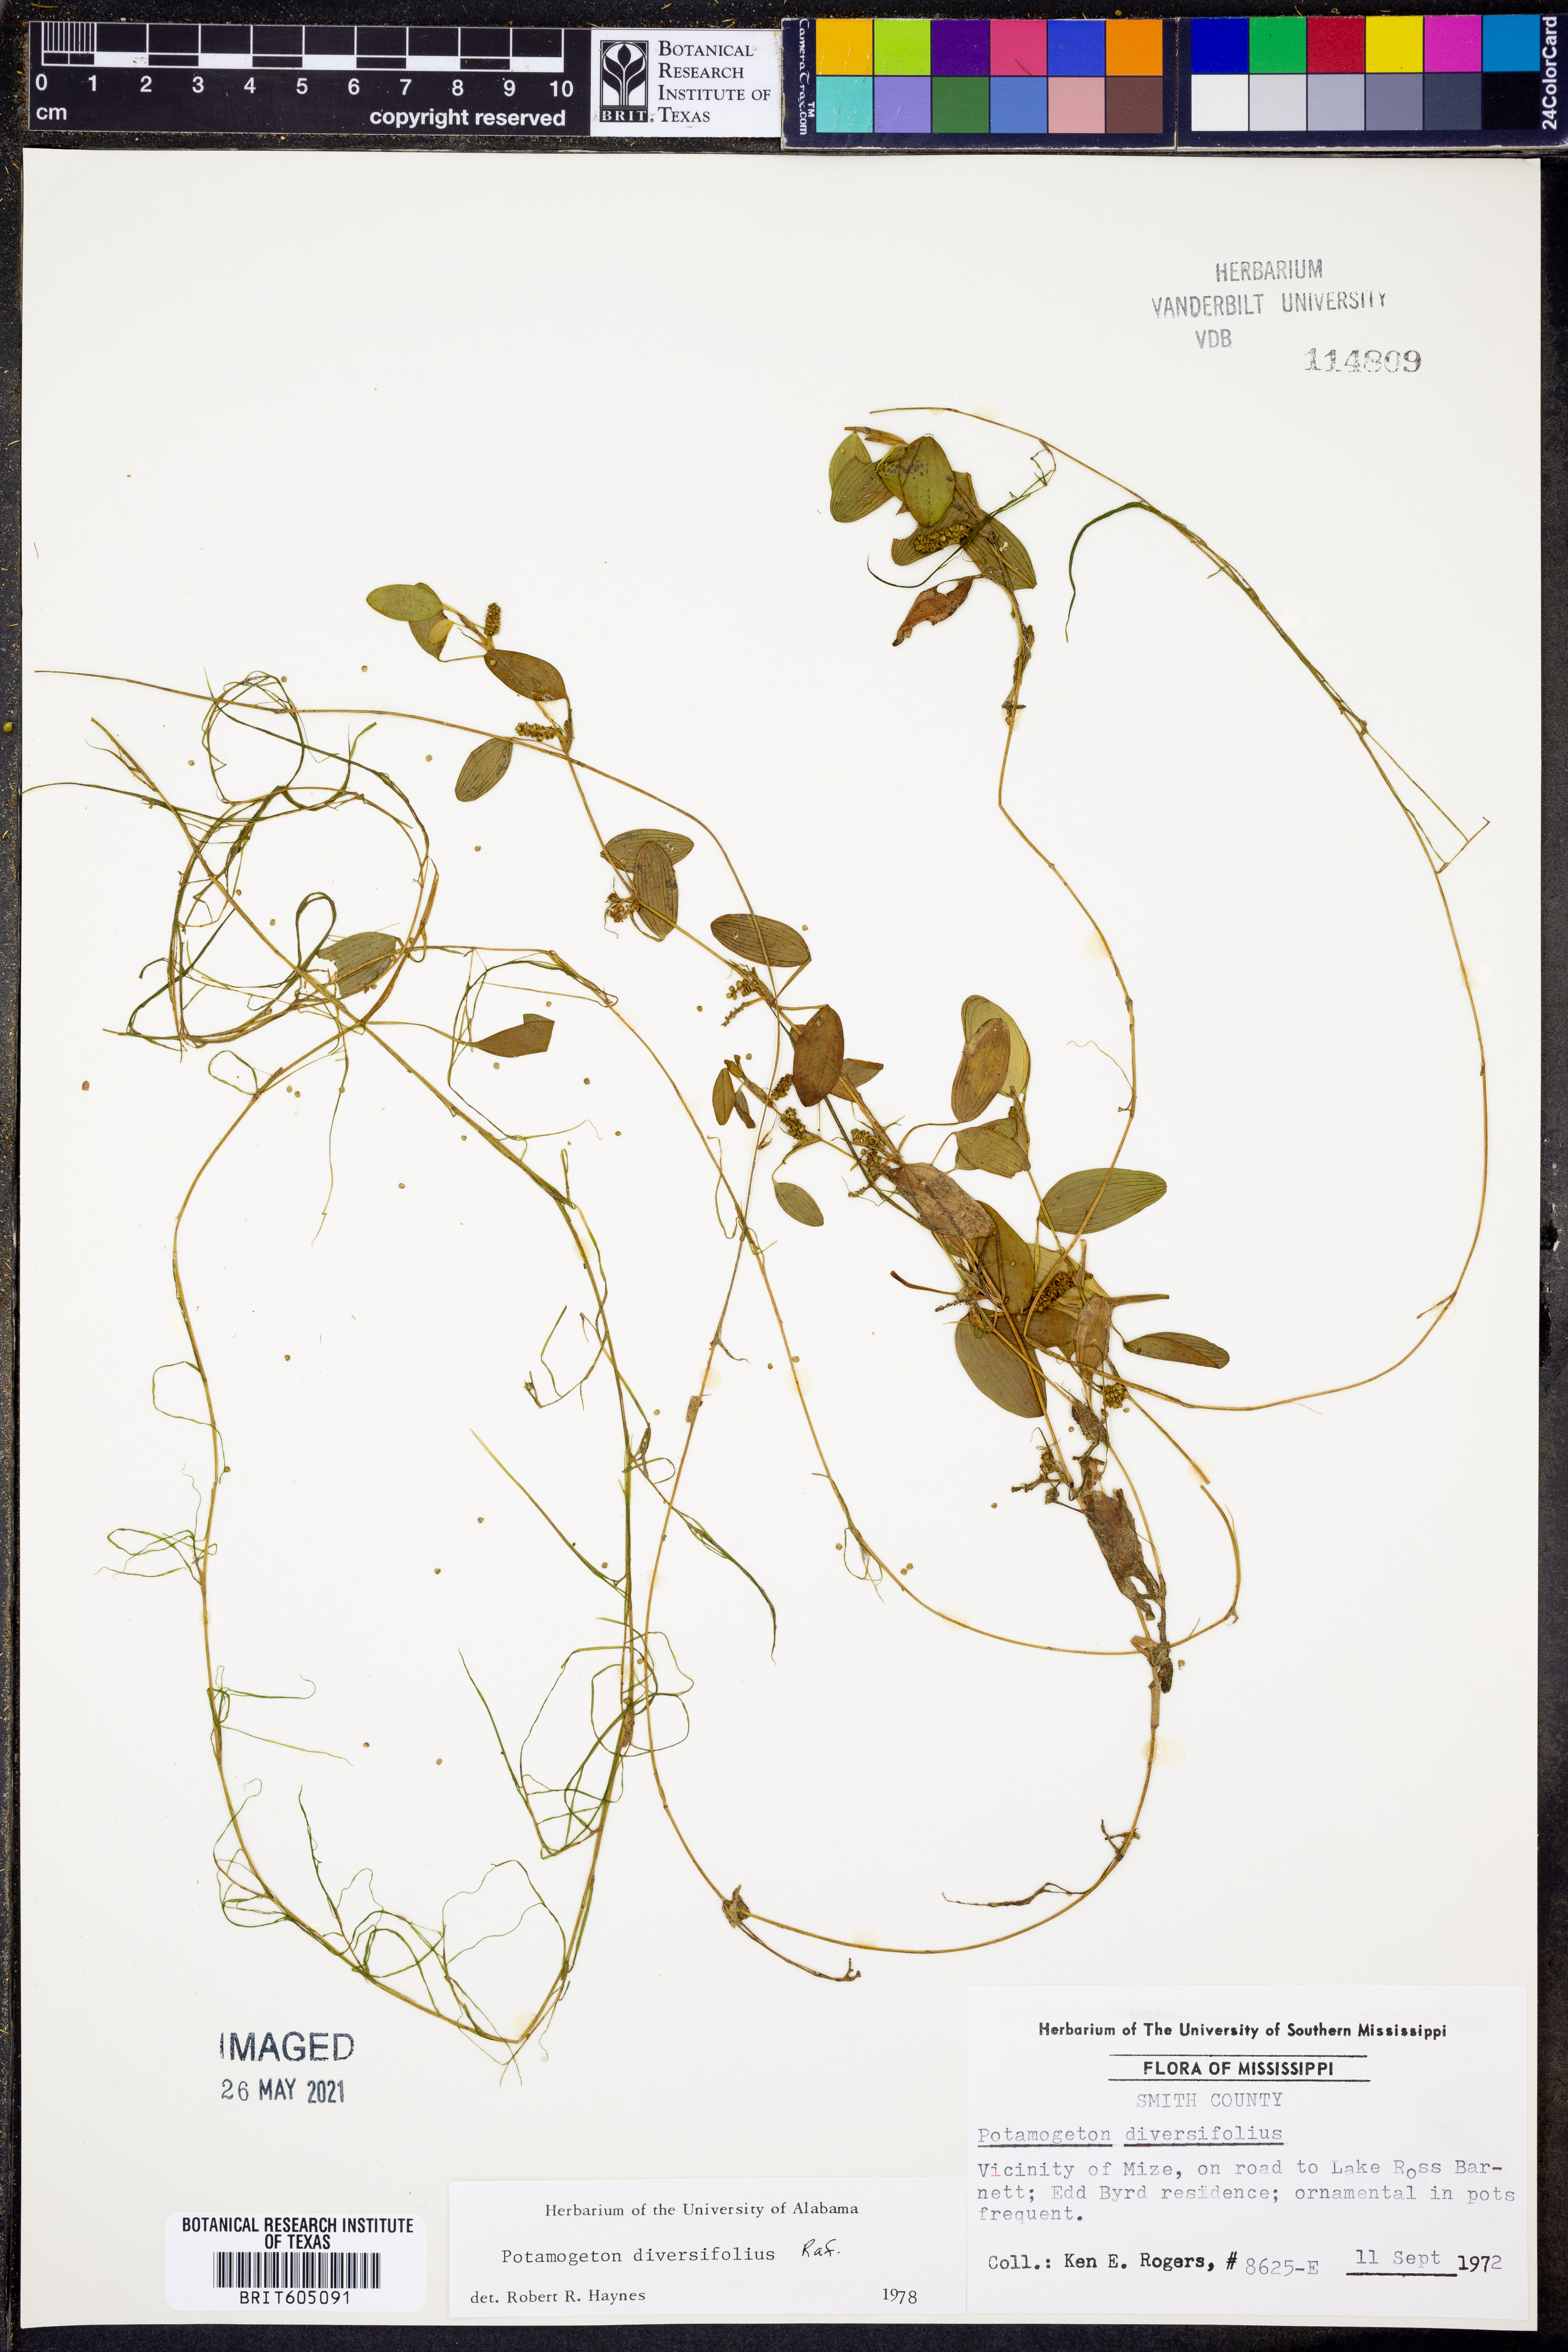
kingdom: Plantae
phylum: Tracheophyta
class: Liliopsida
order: Alismatales
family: Potamogetonaceae
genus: Potamogeton
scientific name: Potamogeton diversifolius
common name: Water-thread pondweed
